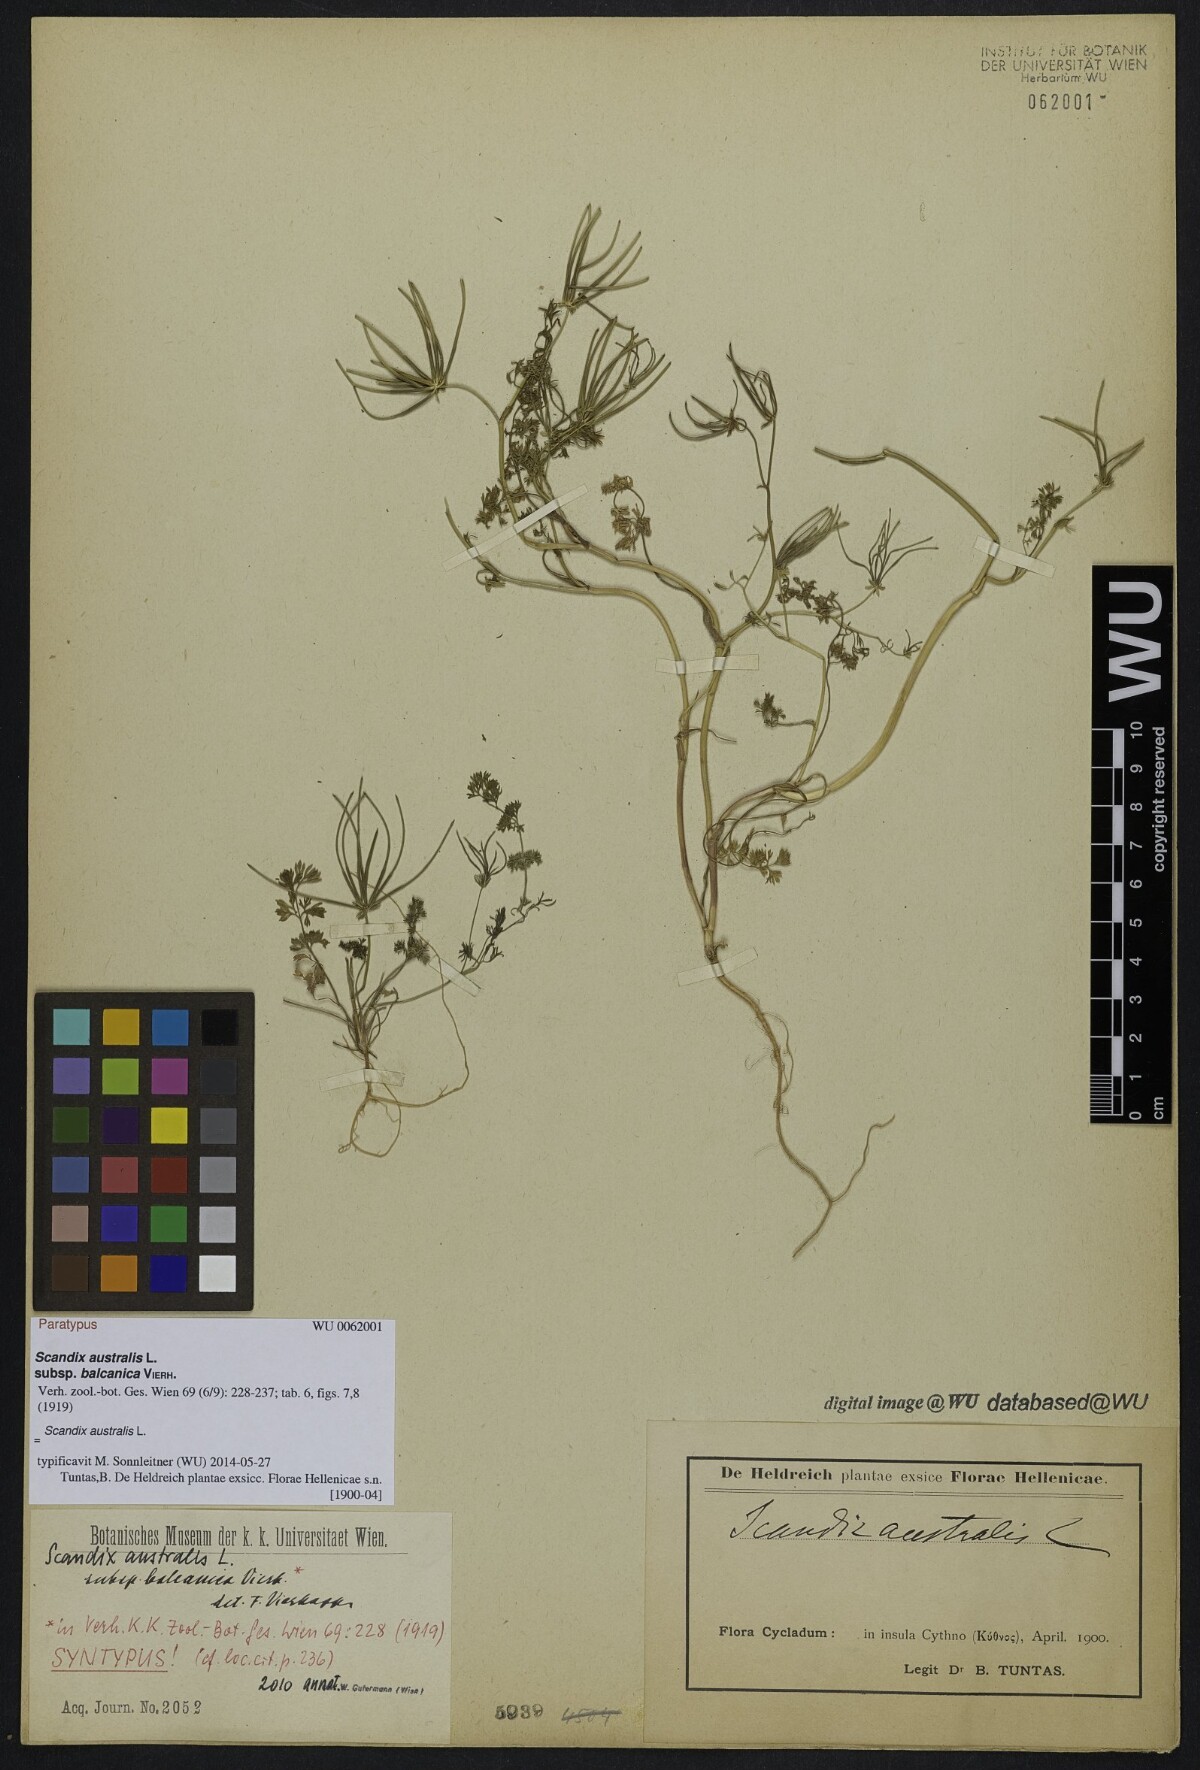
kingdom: Plantae
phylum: Tracheophyta
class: Magnoliopsida
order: Apiales
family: Apiaceae
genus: Scandix
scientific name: Scandix australis
